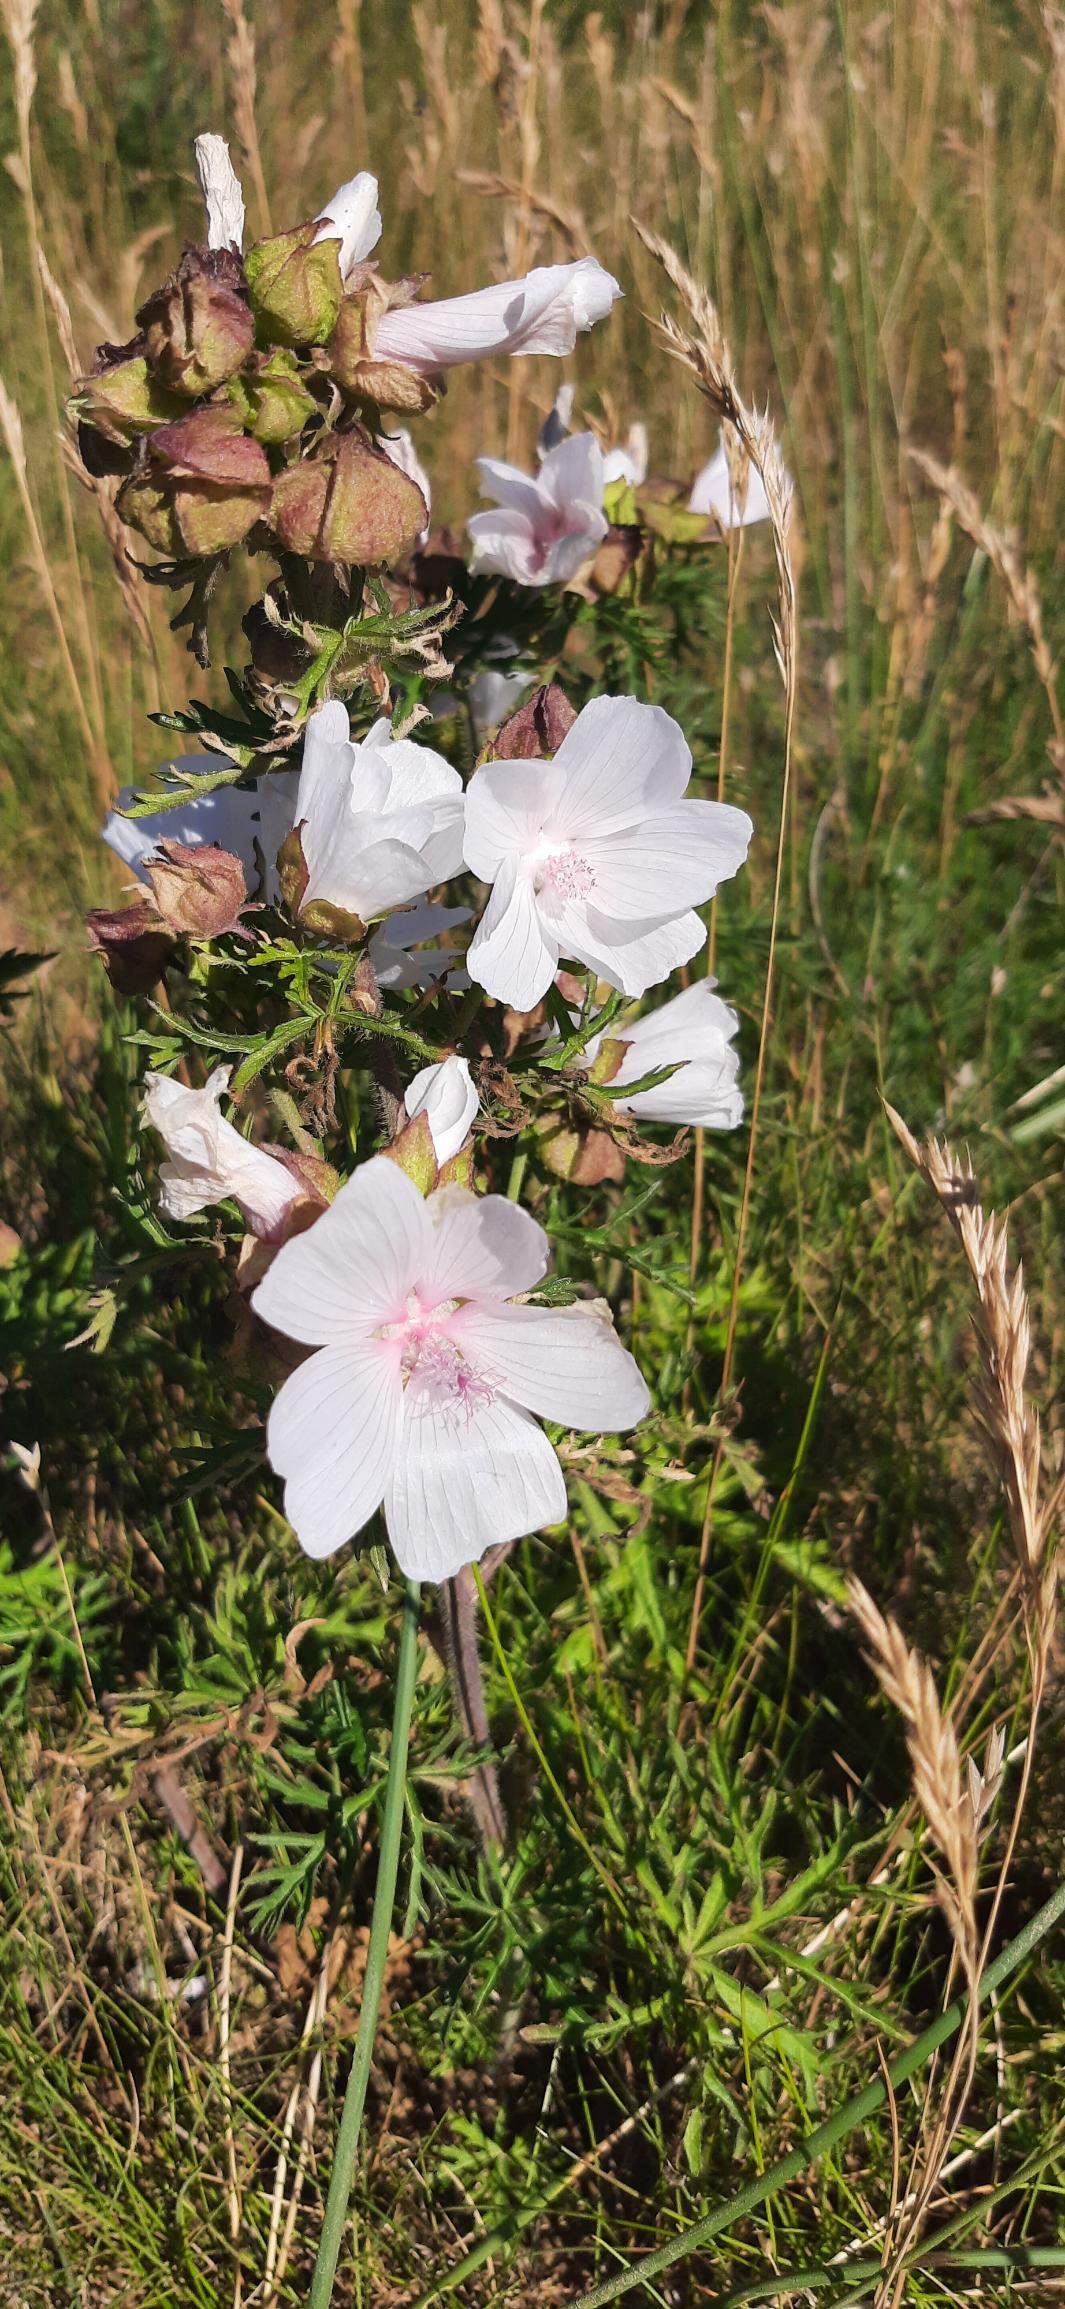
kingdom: Plantae
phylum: Tracheophyta
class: Magnoliopsida
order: Malvales
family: Malvaceae
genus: Malva
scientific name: Malva moschata
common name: Moskus-katost
